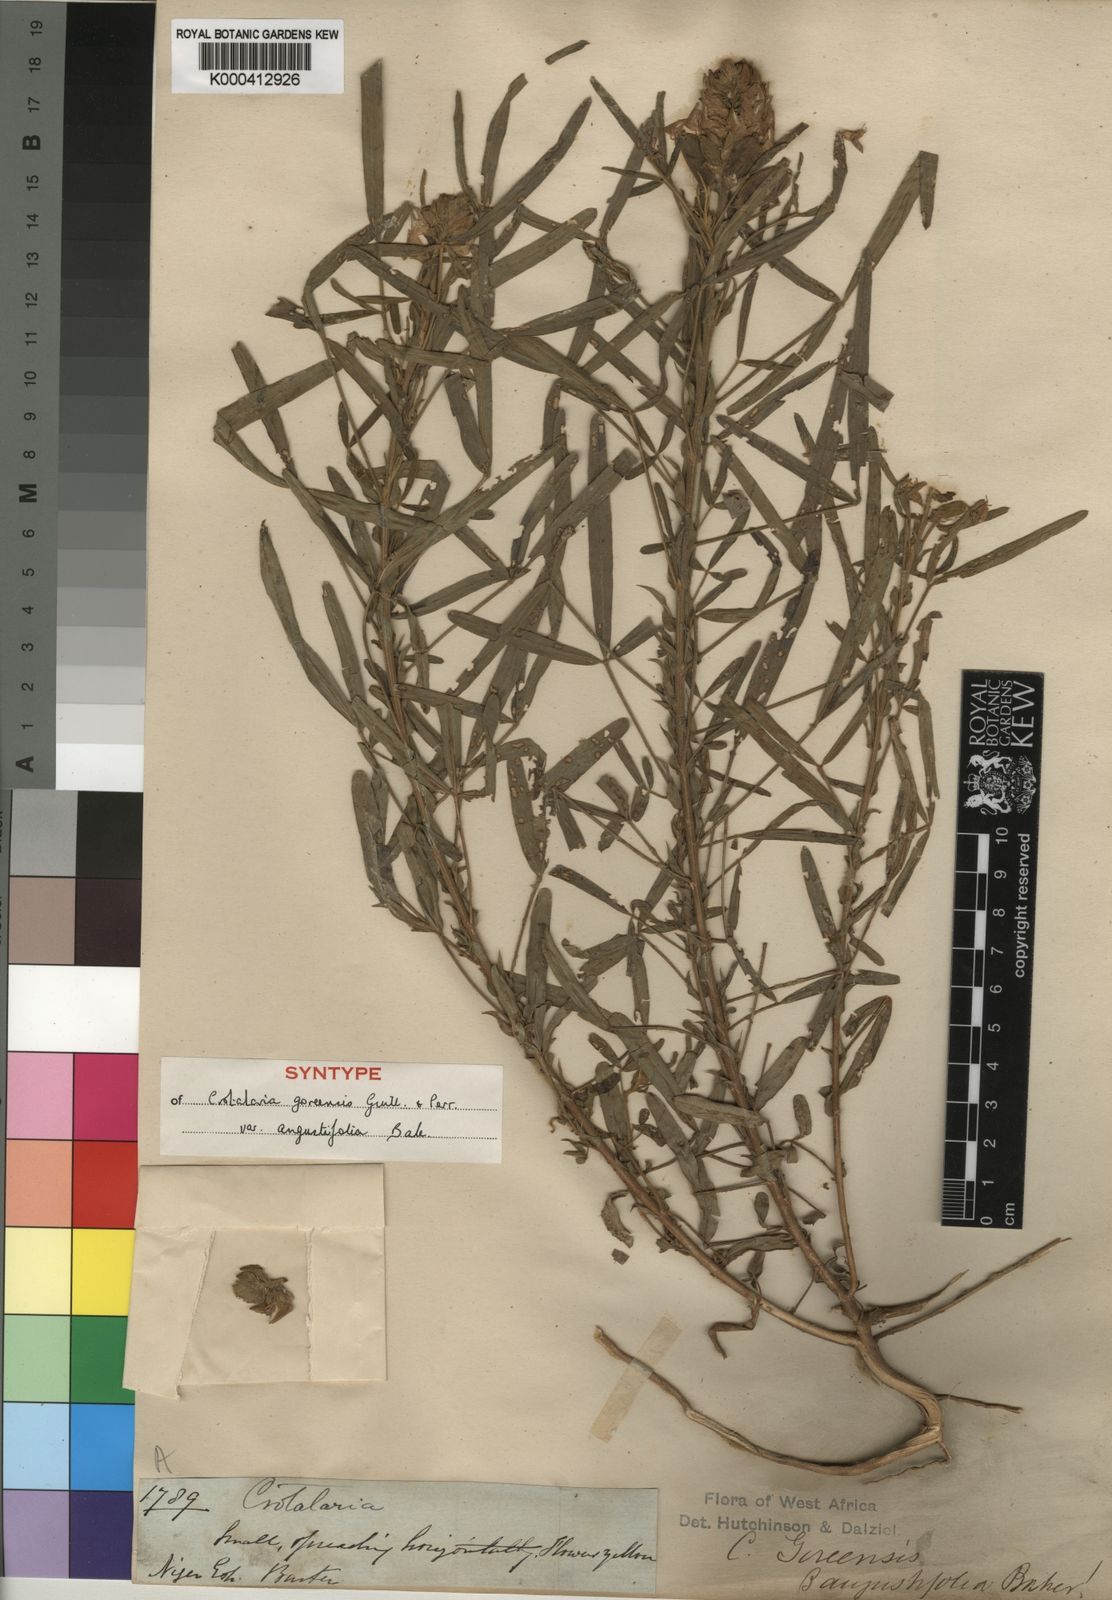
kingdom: Plantae
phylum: Tracheophyta
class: Magnoliopsida
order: Fabales
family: Fabaceae
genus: Crotalaria
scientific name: Crotalaria goreensis
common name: Gambia-pea
